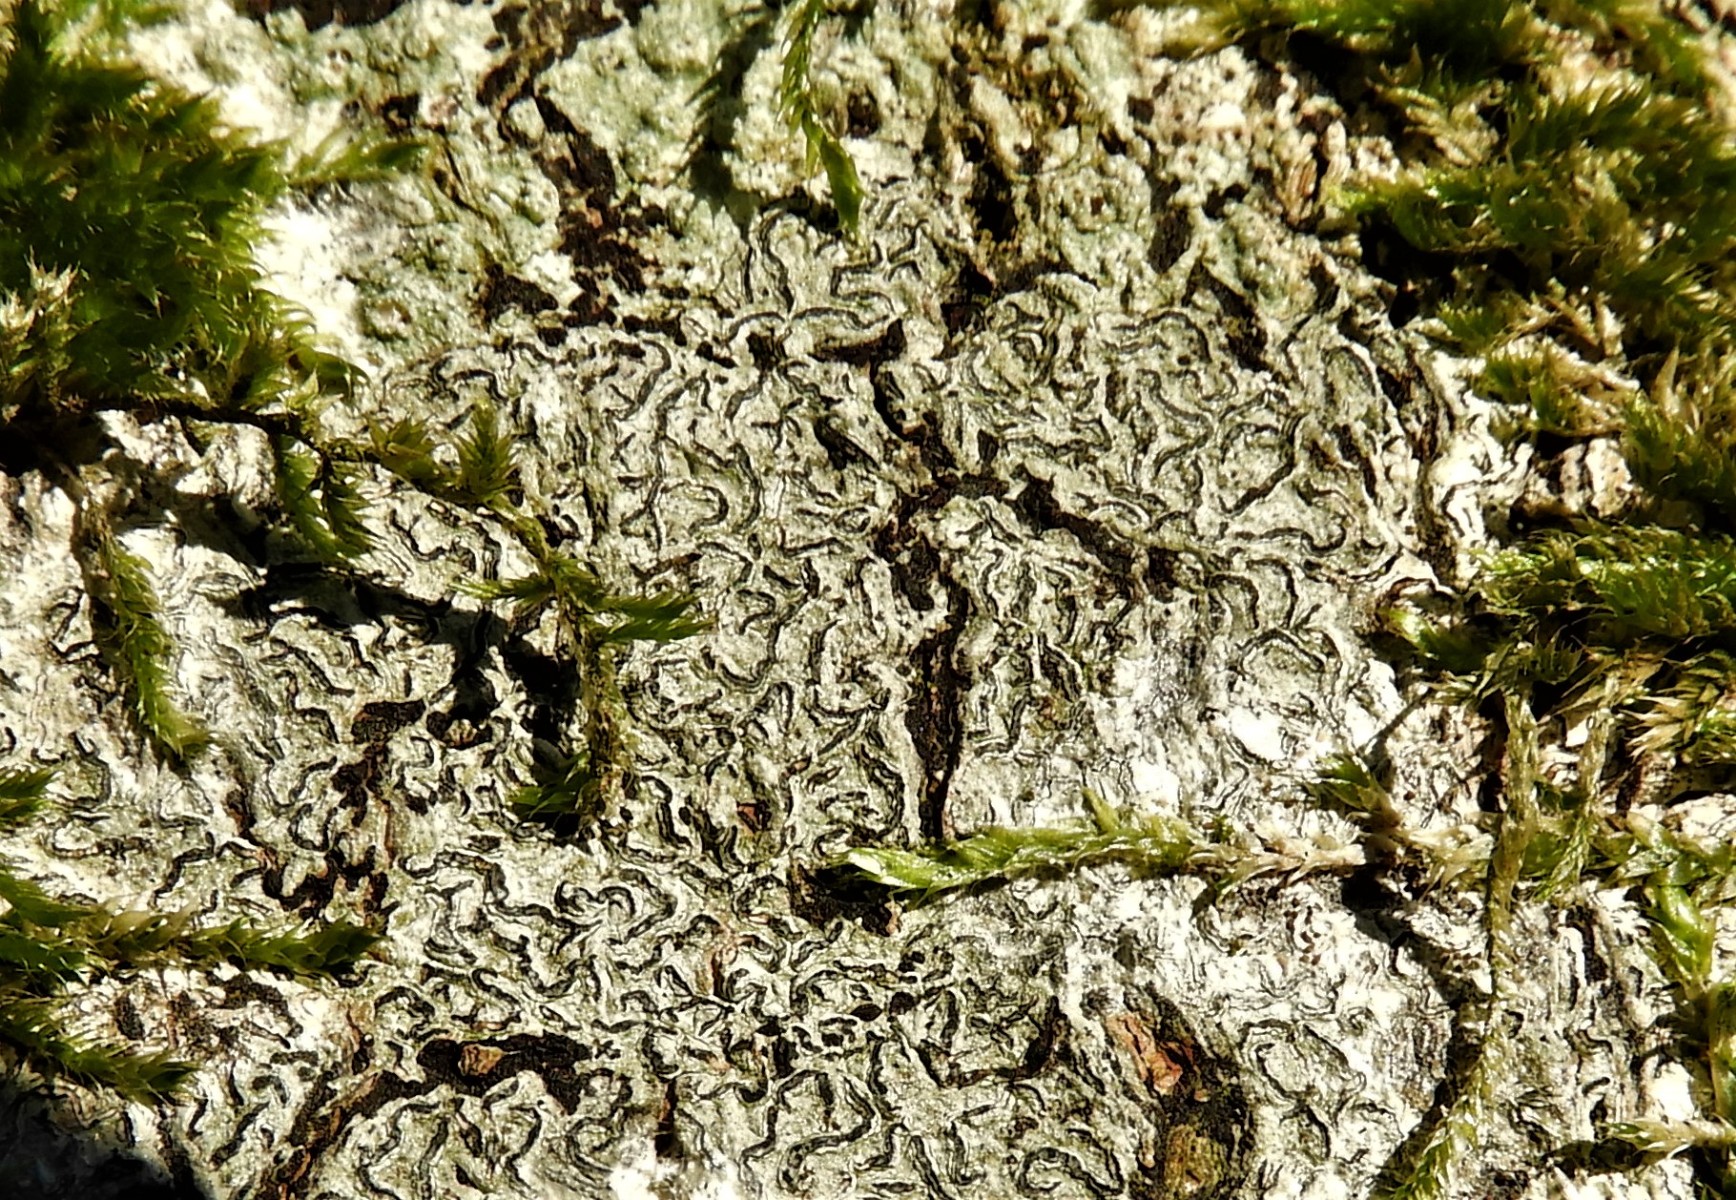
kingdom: Fungi
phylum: Ascomycota
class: Lecanoromycetes
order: Ostropales
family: Graphidaceae
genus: Graphis
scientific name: Graphis scripta
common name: almindelig skriftlav
